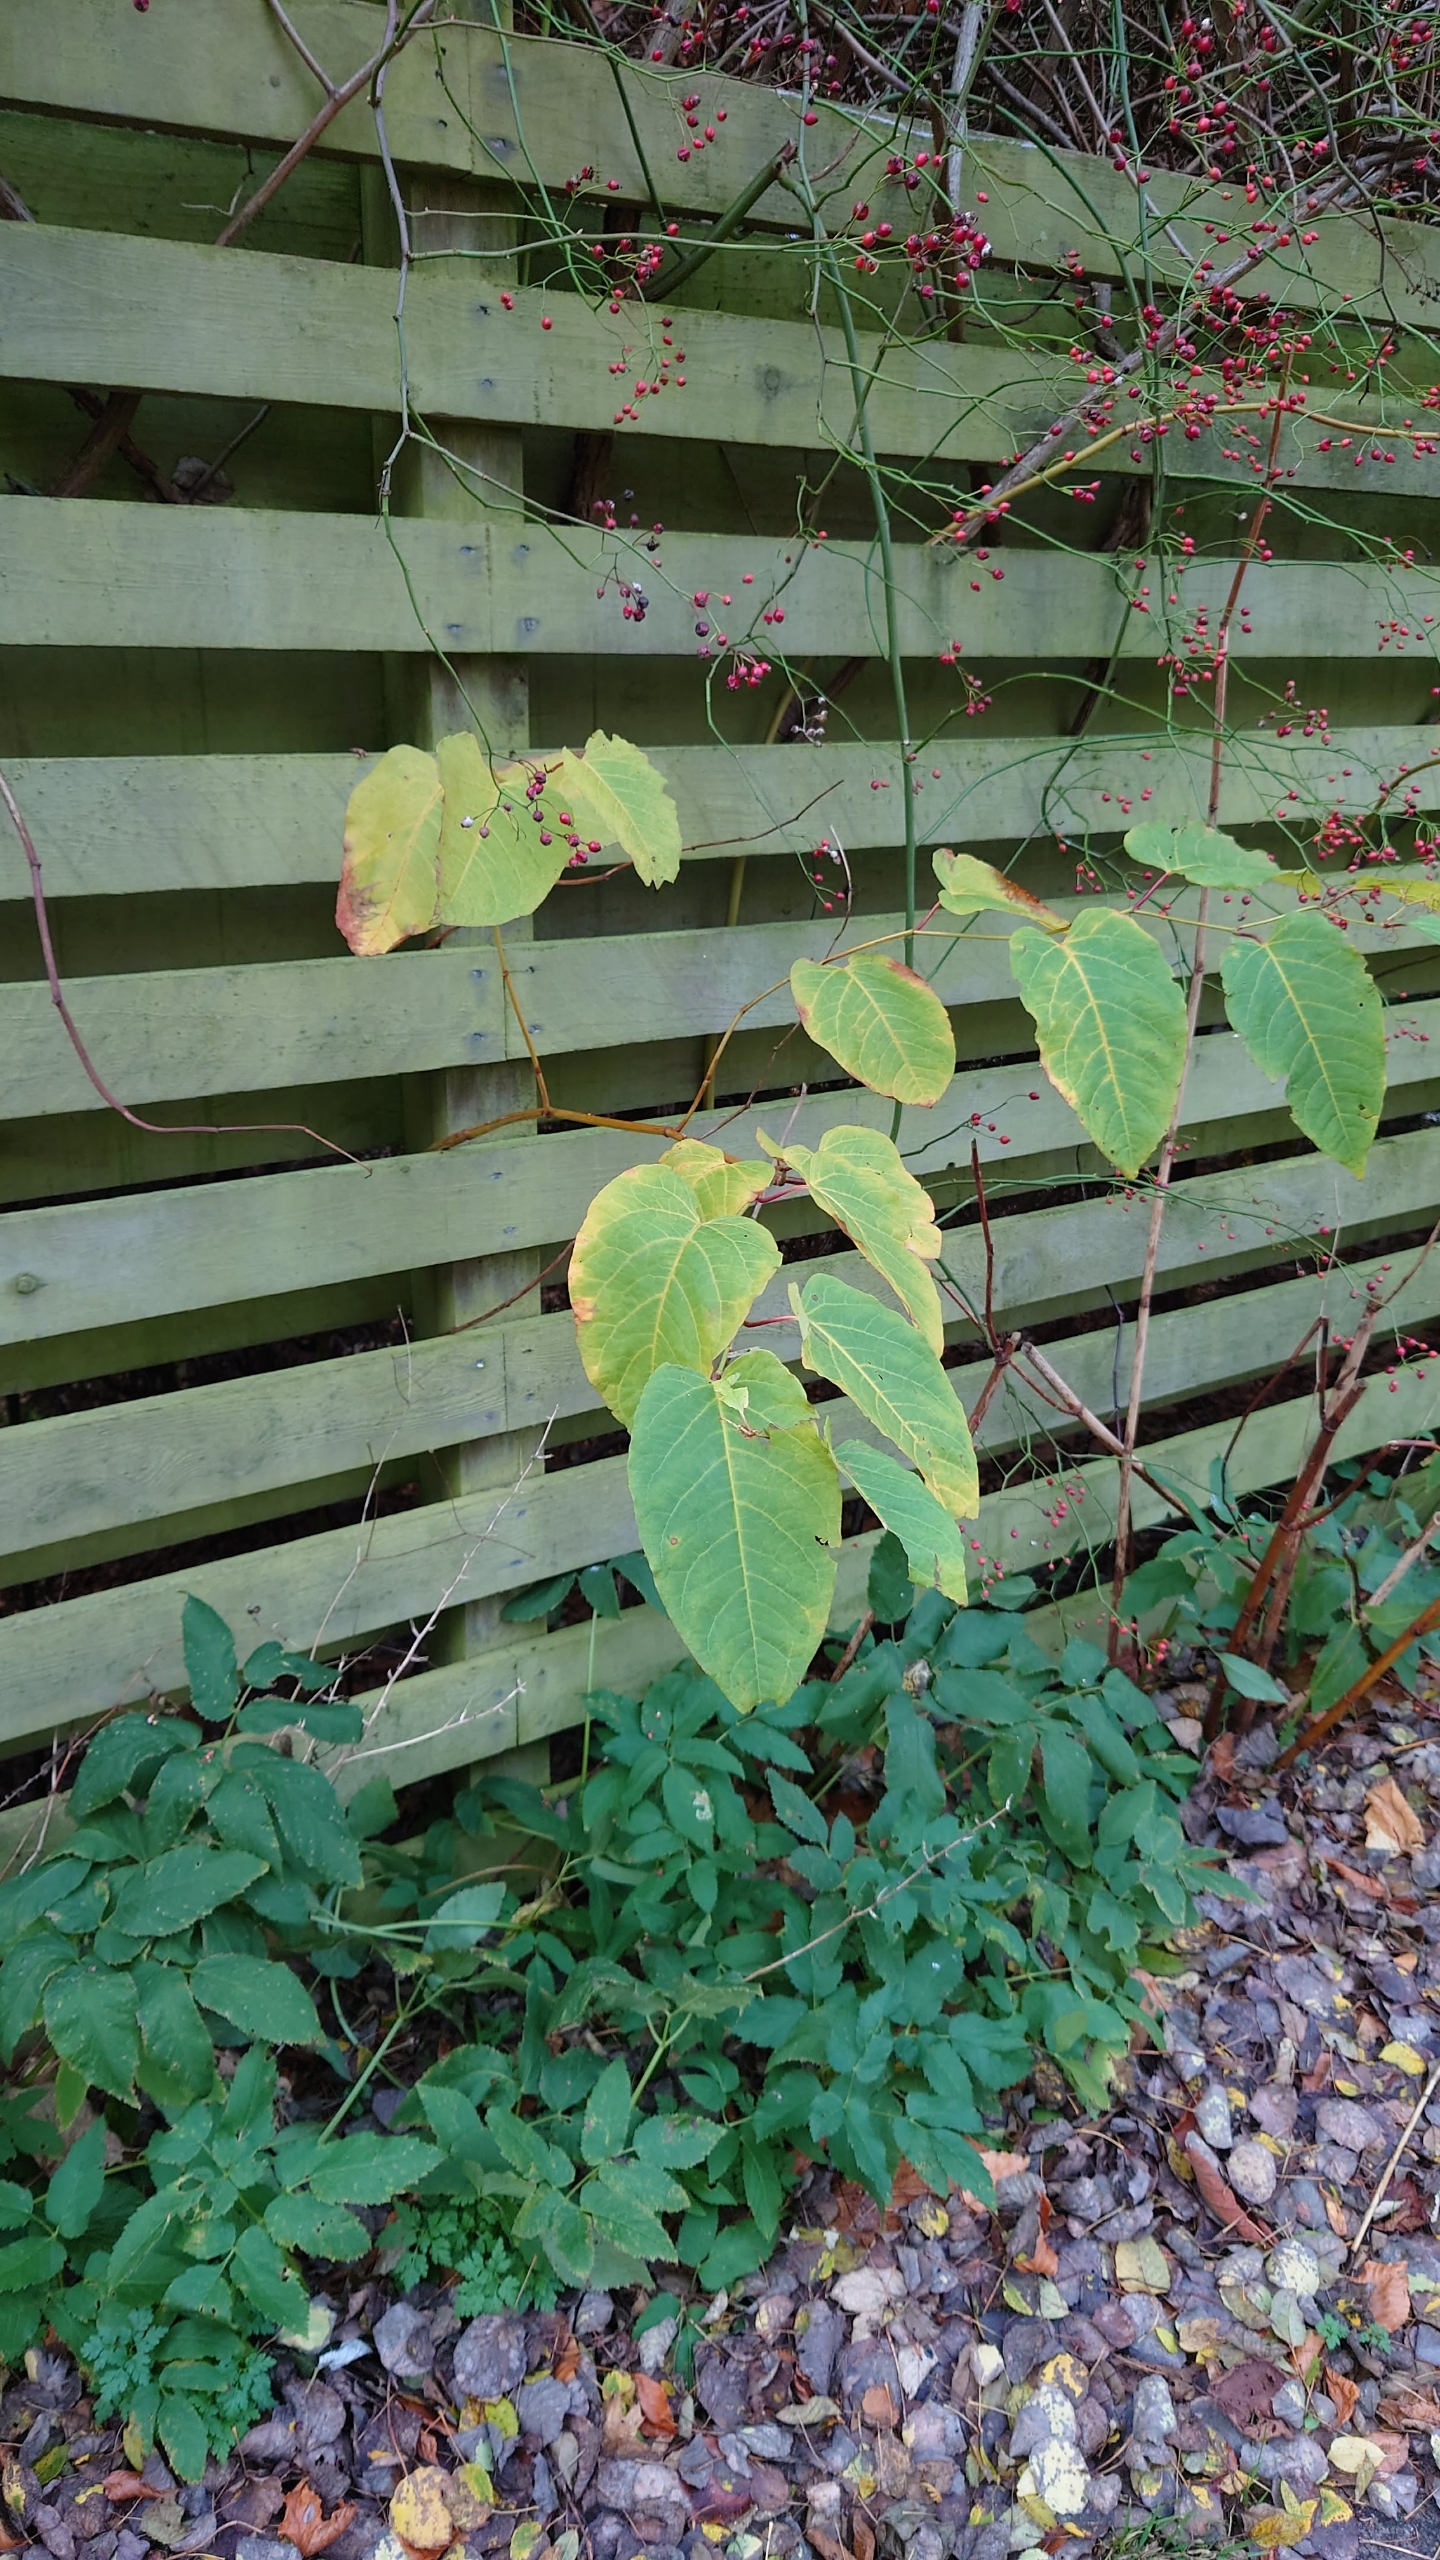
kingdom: Plantae
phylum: Tracheophyta
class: Magnoliopsida
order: Caryophyllales
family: Polygonaceae
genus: Reynoutria
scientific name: Reynoutria sachalinensis
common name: Kæmpe-pileurt
